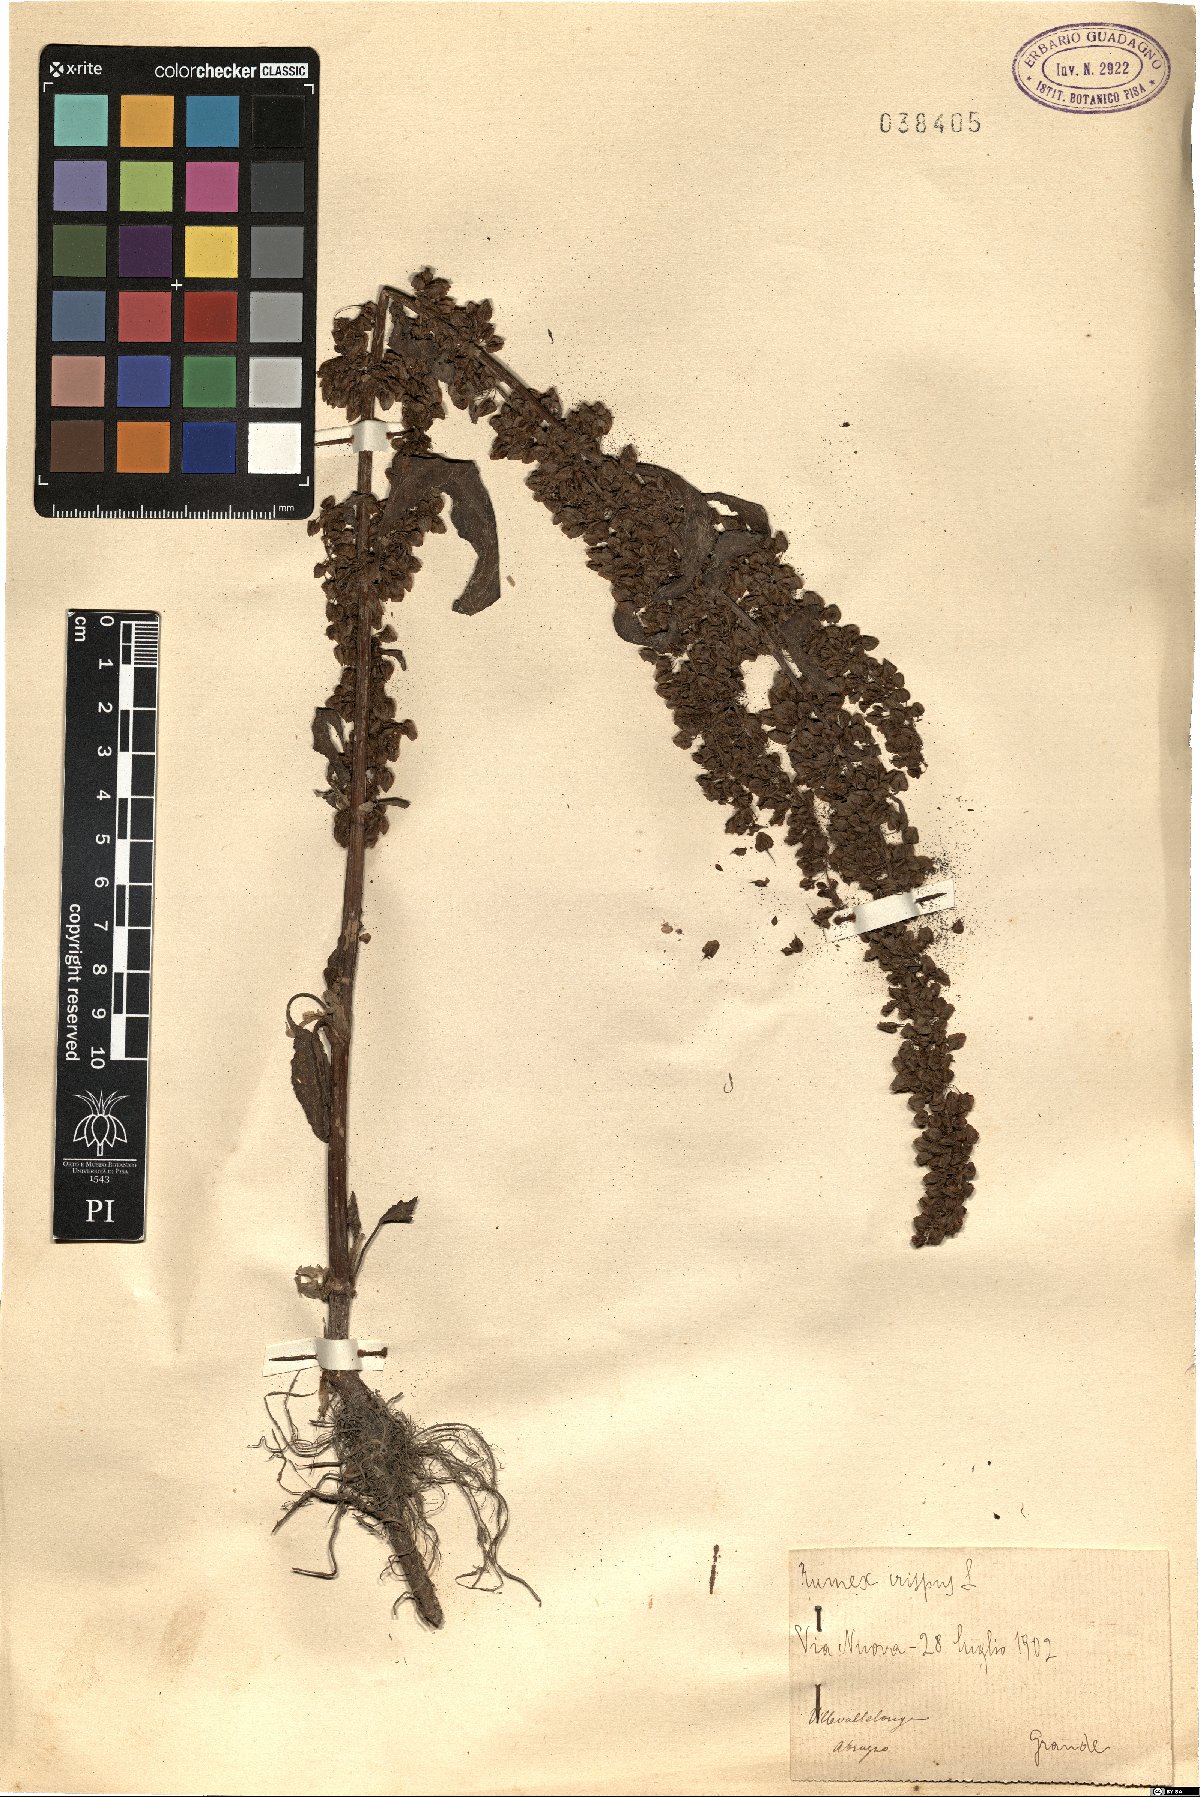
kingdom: Plantae
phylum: Tracheophyta
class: Magnoliopsida
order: Caryophyllales
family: Polygonaceae
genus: Rumex
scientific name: Rumex crispus
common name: Curled dock
